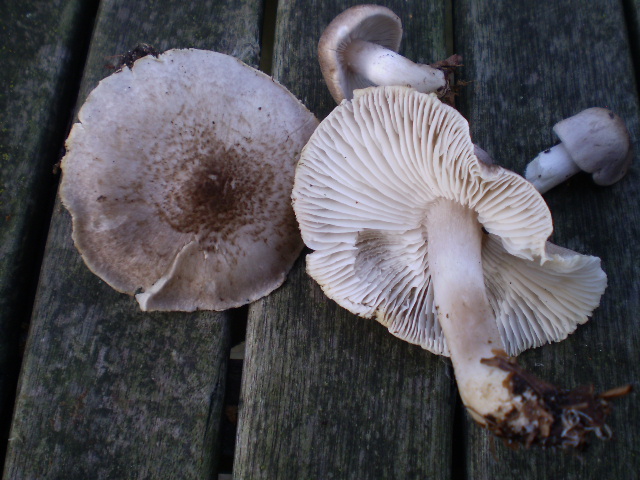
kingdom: Fungi
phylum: Basidiomycota
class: Agaricomycetes
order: Agaricales
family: Tricholomataceae
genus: Tricholoma
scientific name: Tricholoma scalpturatum
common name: gulplettet ridderhat
